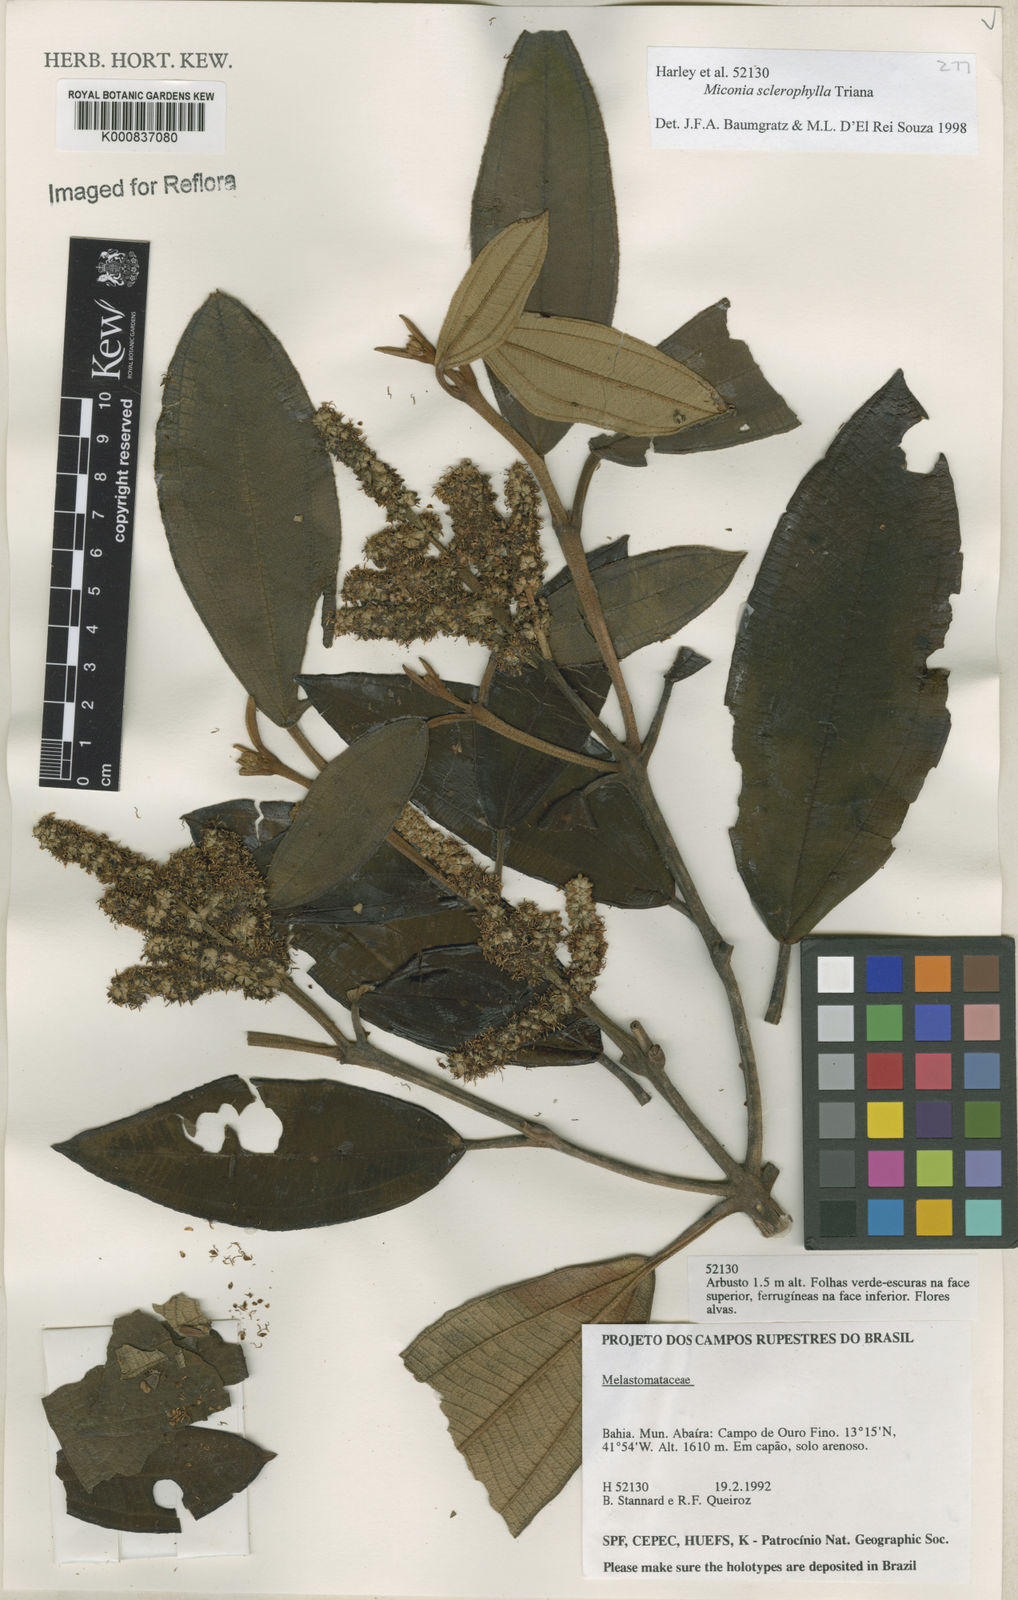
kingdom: Plantae
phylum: Tracheophyta
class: Magnoliopsida
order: Myrtales
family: Melastomataceae
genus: Miconia
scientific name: Miconia sclerophylla
